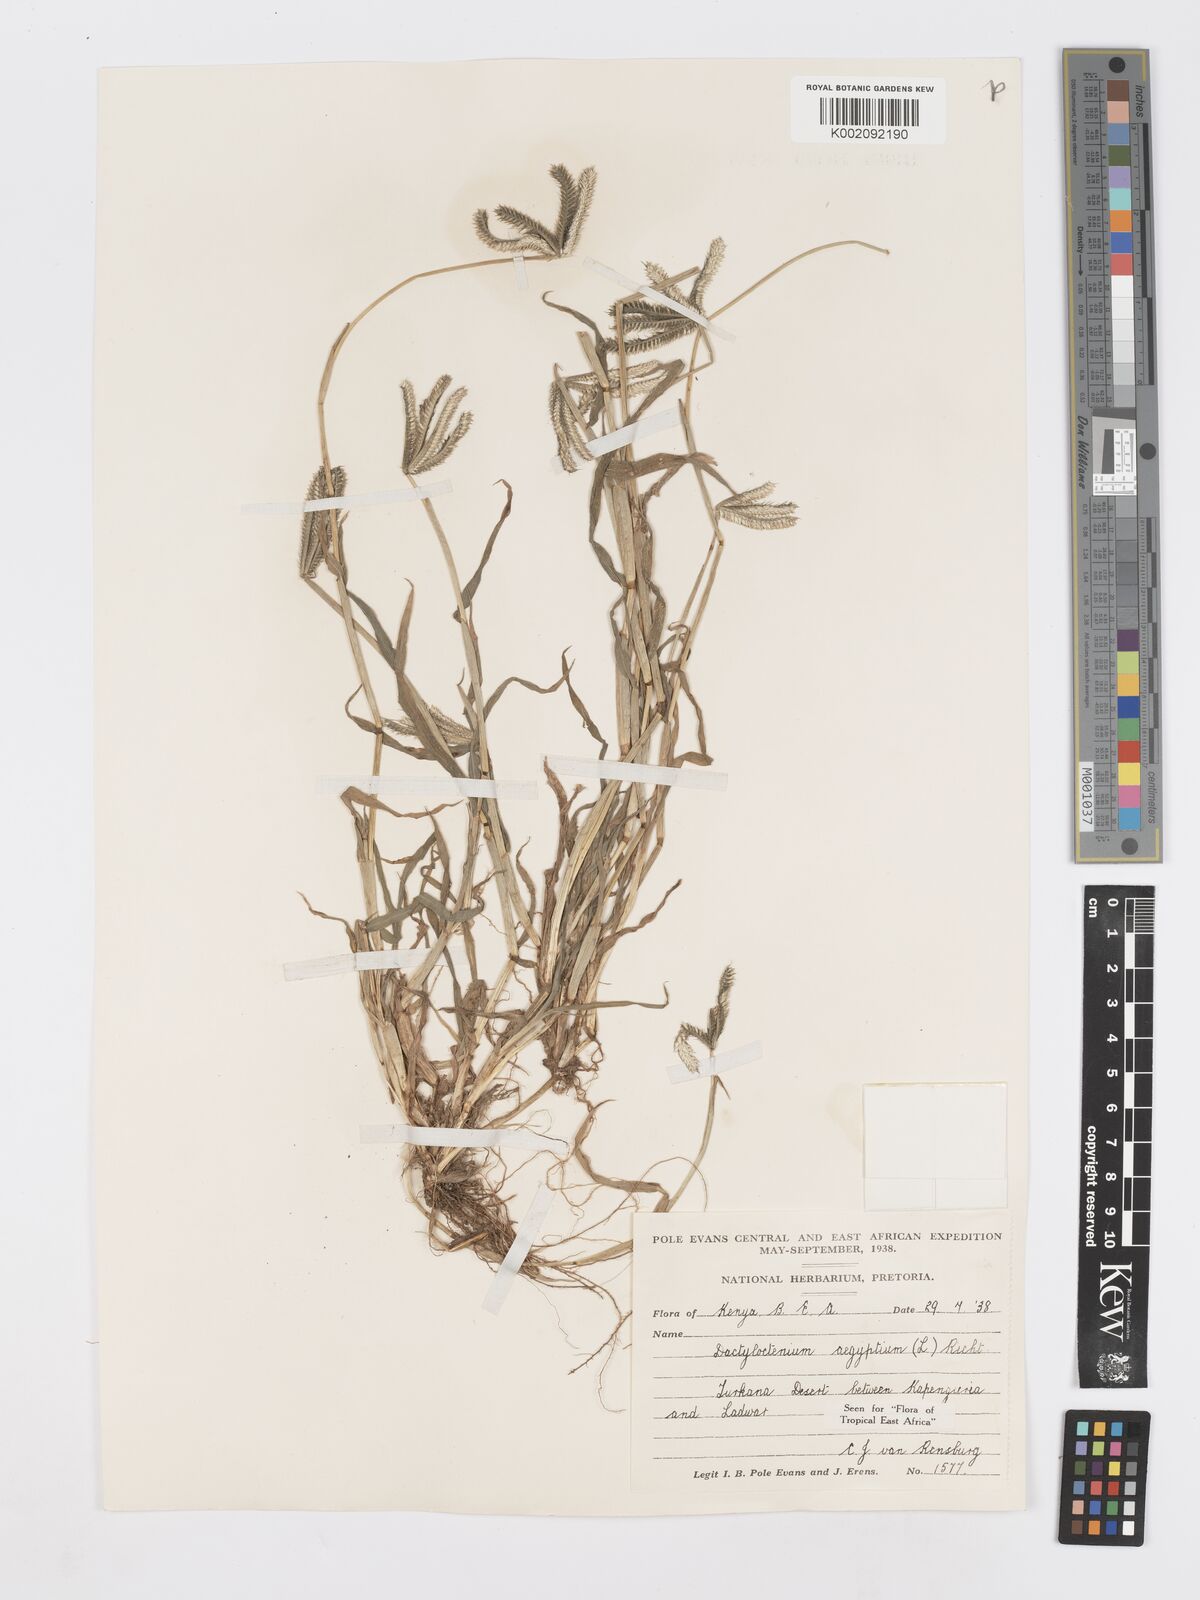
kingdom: Plantae
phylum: Tracheophyta
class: Liliopsida
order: Poales
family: Poaceae
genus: Dactyloctenium
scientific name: Dactyloctenium aegyptium
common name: Egyptian grass
